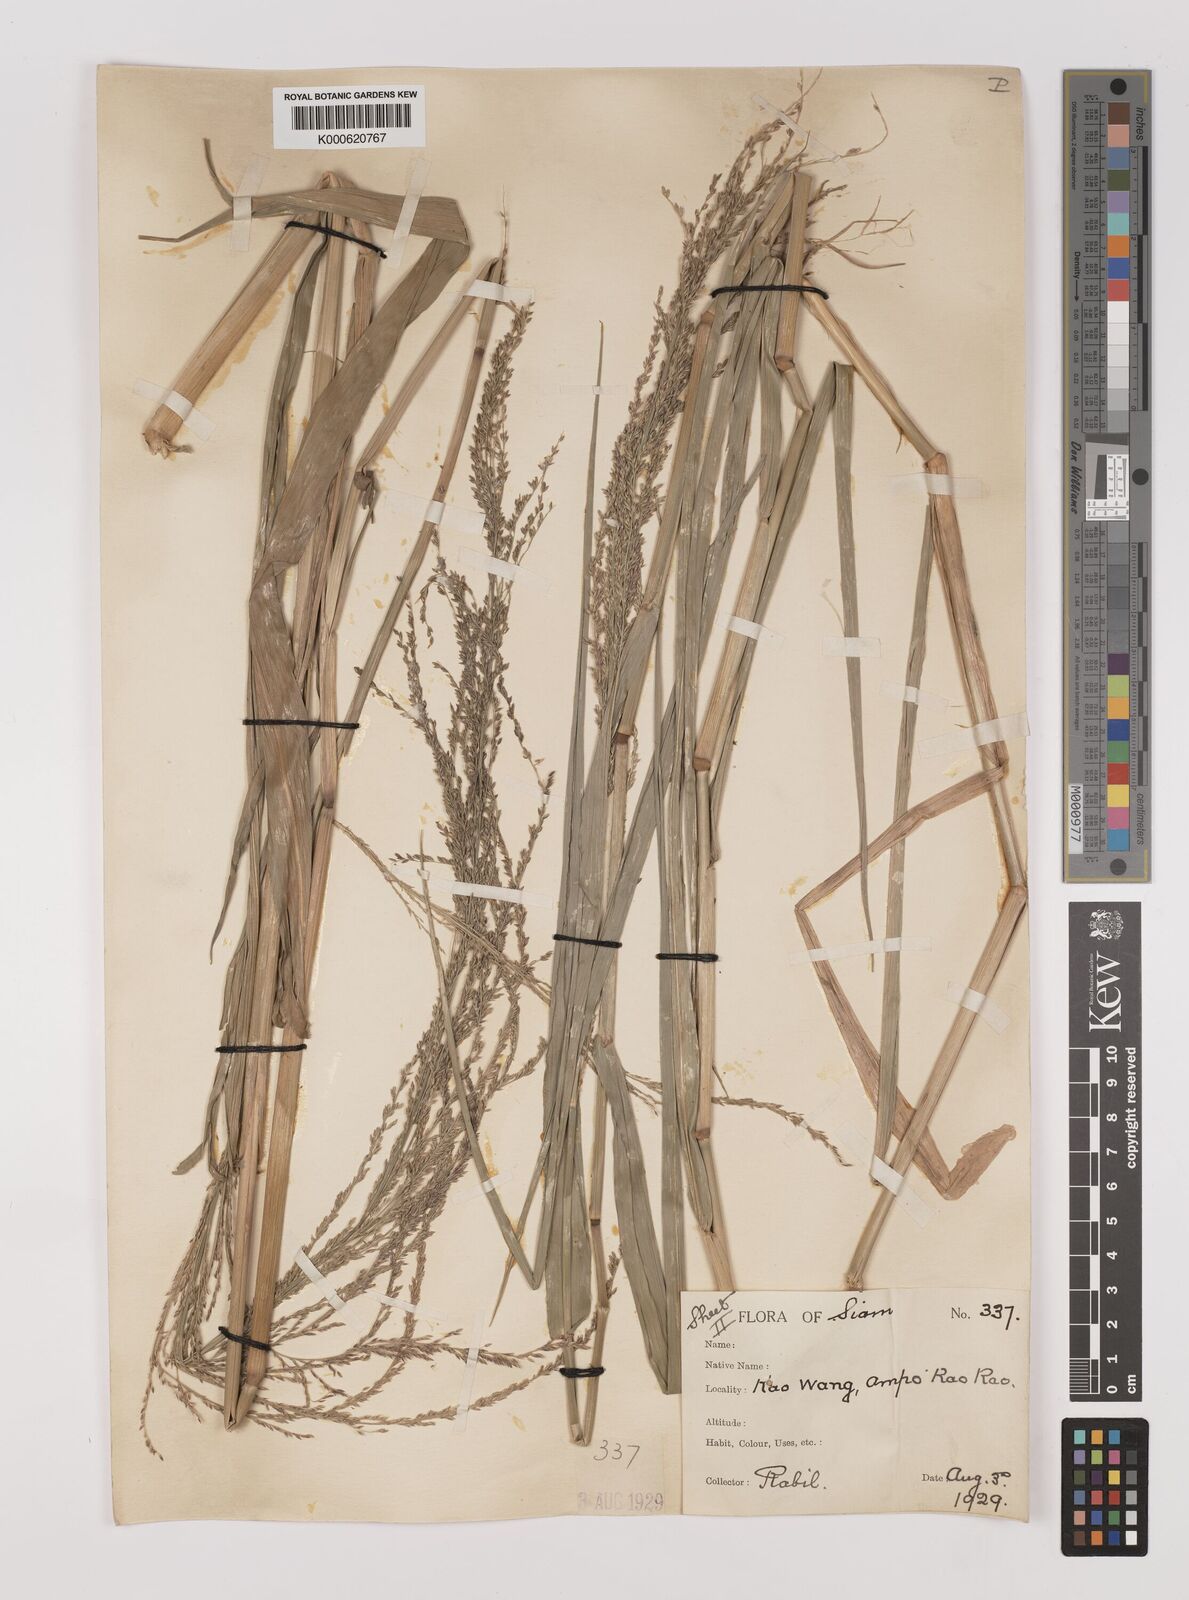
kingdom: Plantae
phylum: Tracheophyta
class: Liliopsida
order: Poales
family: Poaceae
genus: Hymenachne
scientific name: Hymenachne aurita
